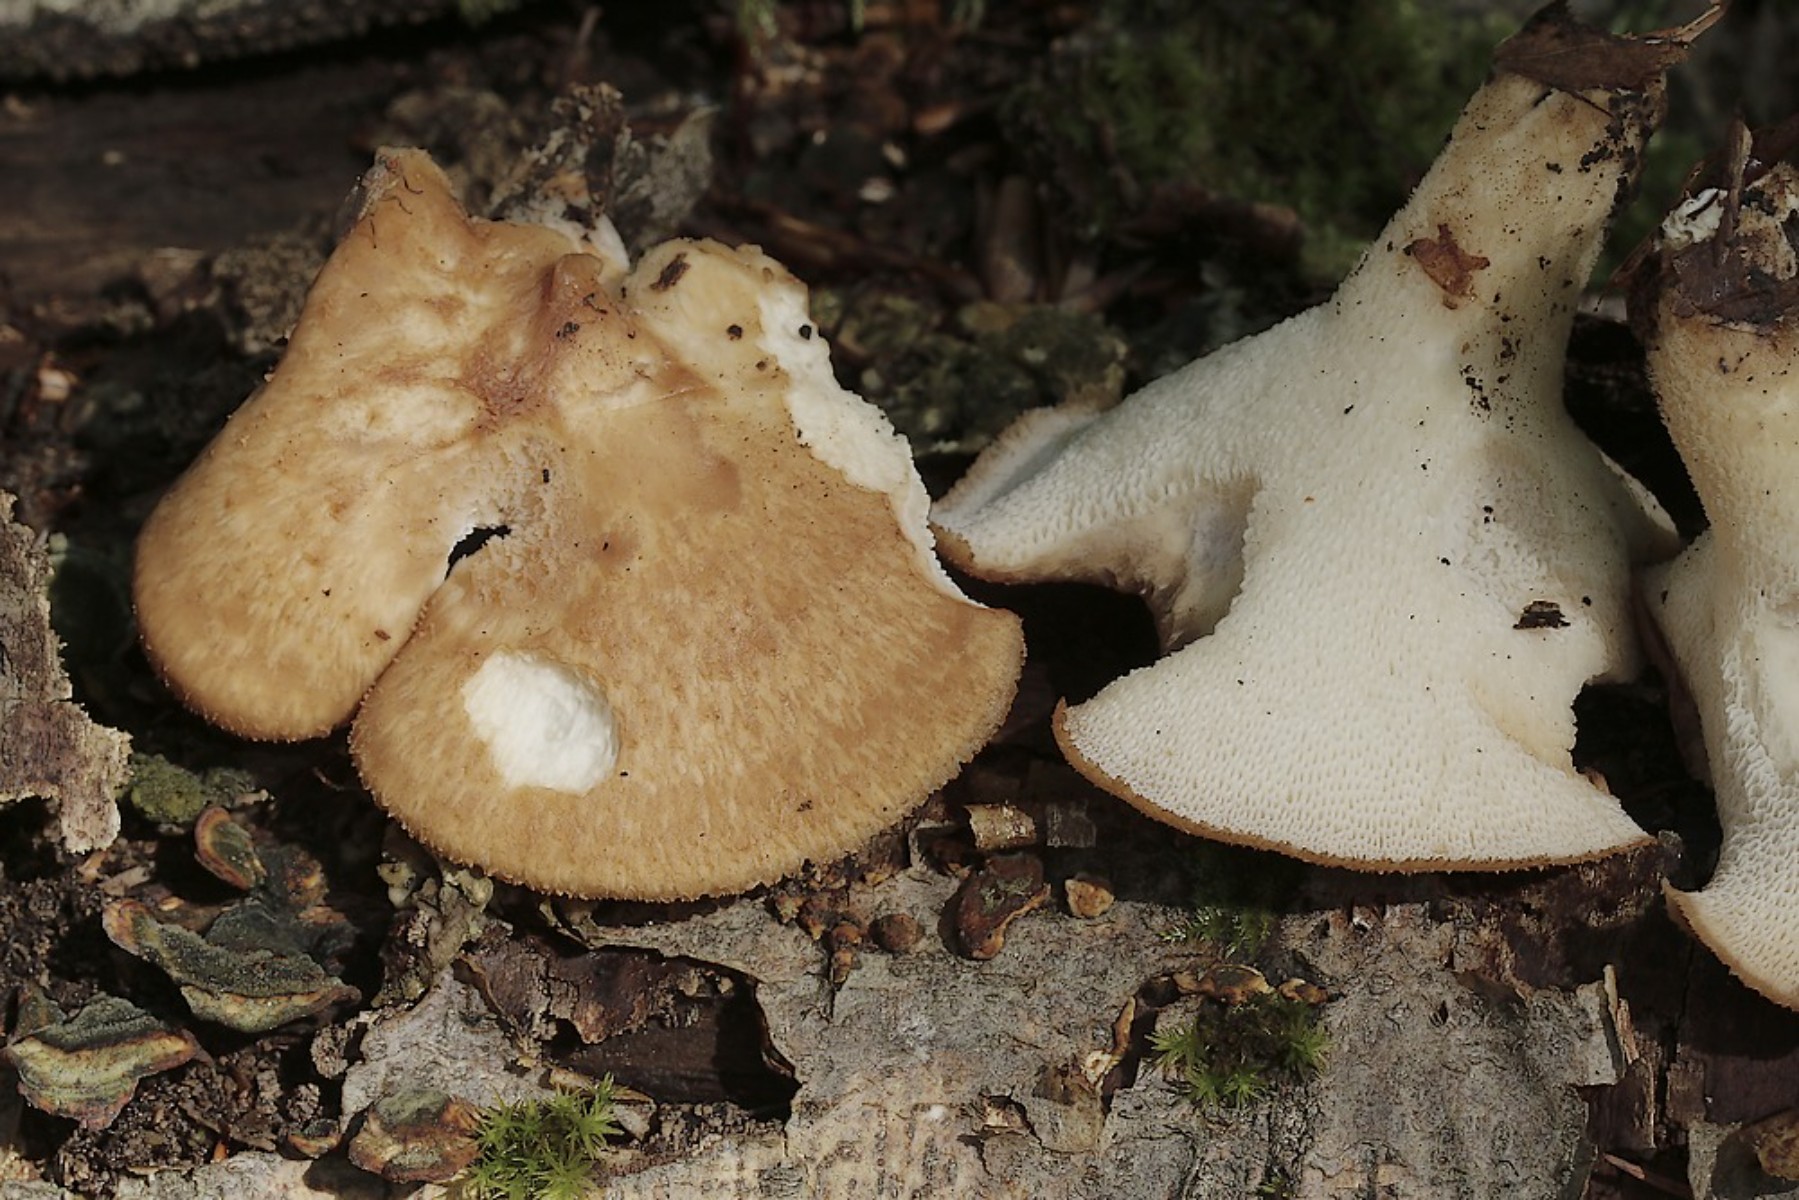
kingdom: Fungi
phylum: Basidiomycota
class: Agaricomycetes
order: Polyporales
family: Polyporaceae
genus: Polyporus
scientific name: Polyporus tuberaster
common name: knoldet stilkporesvamp
